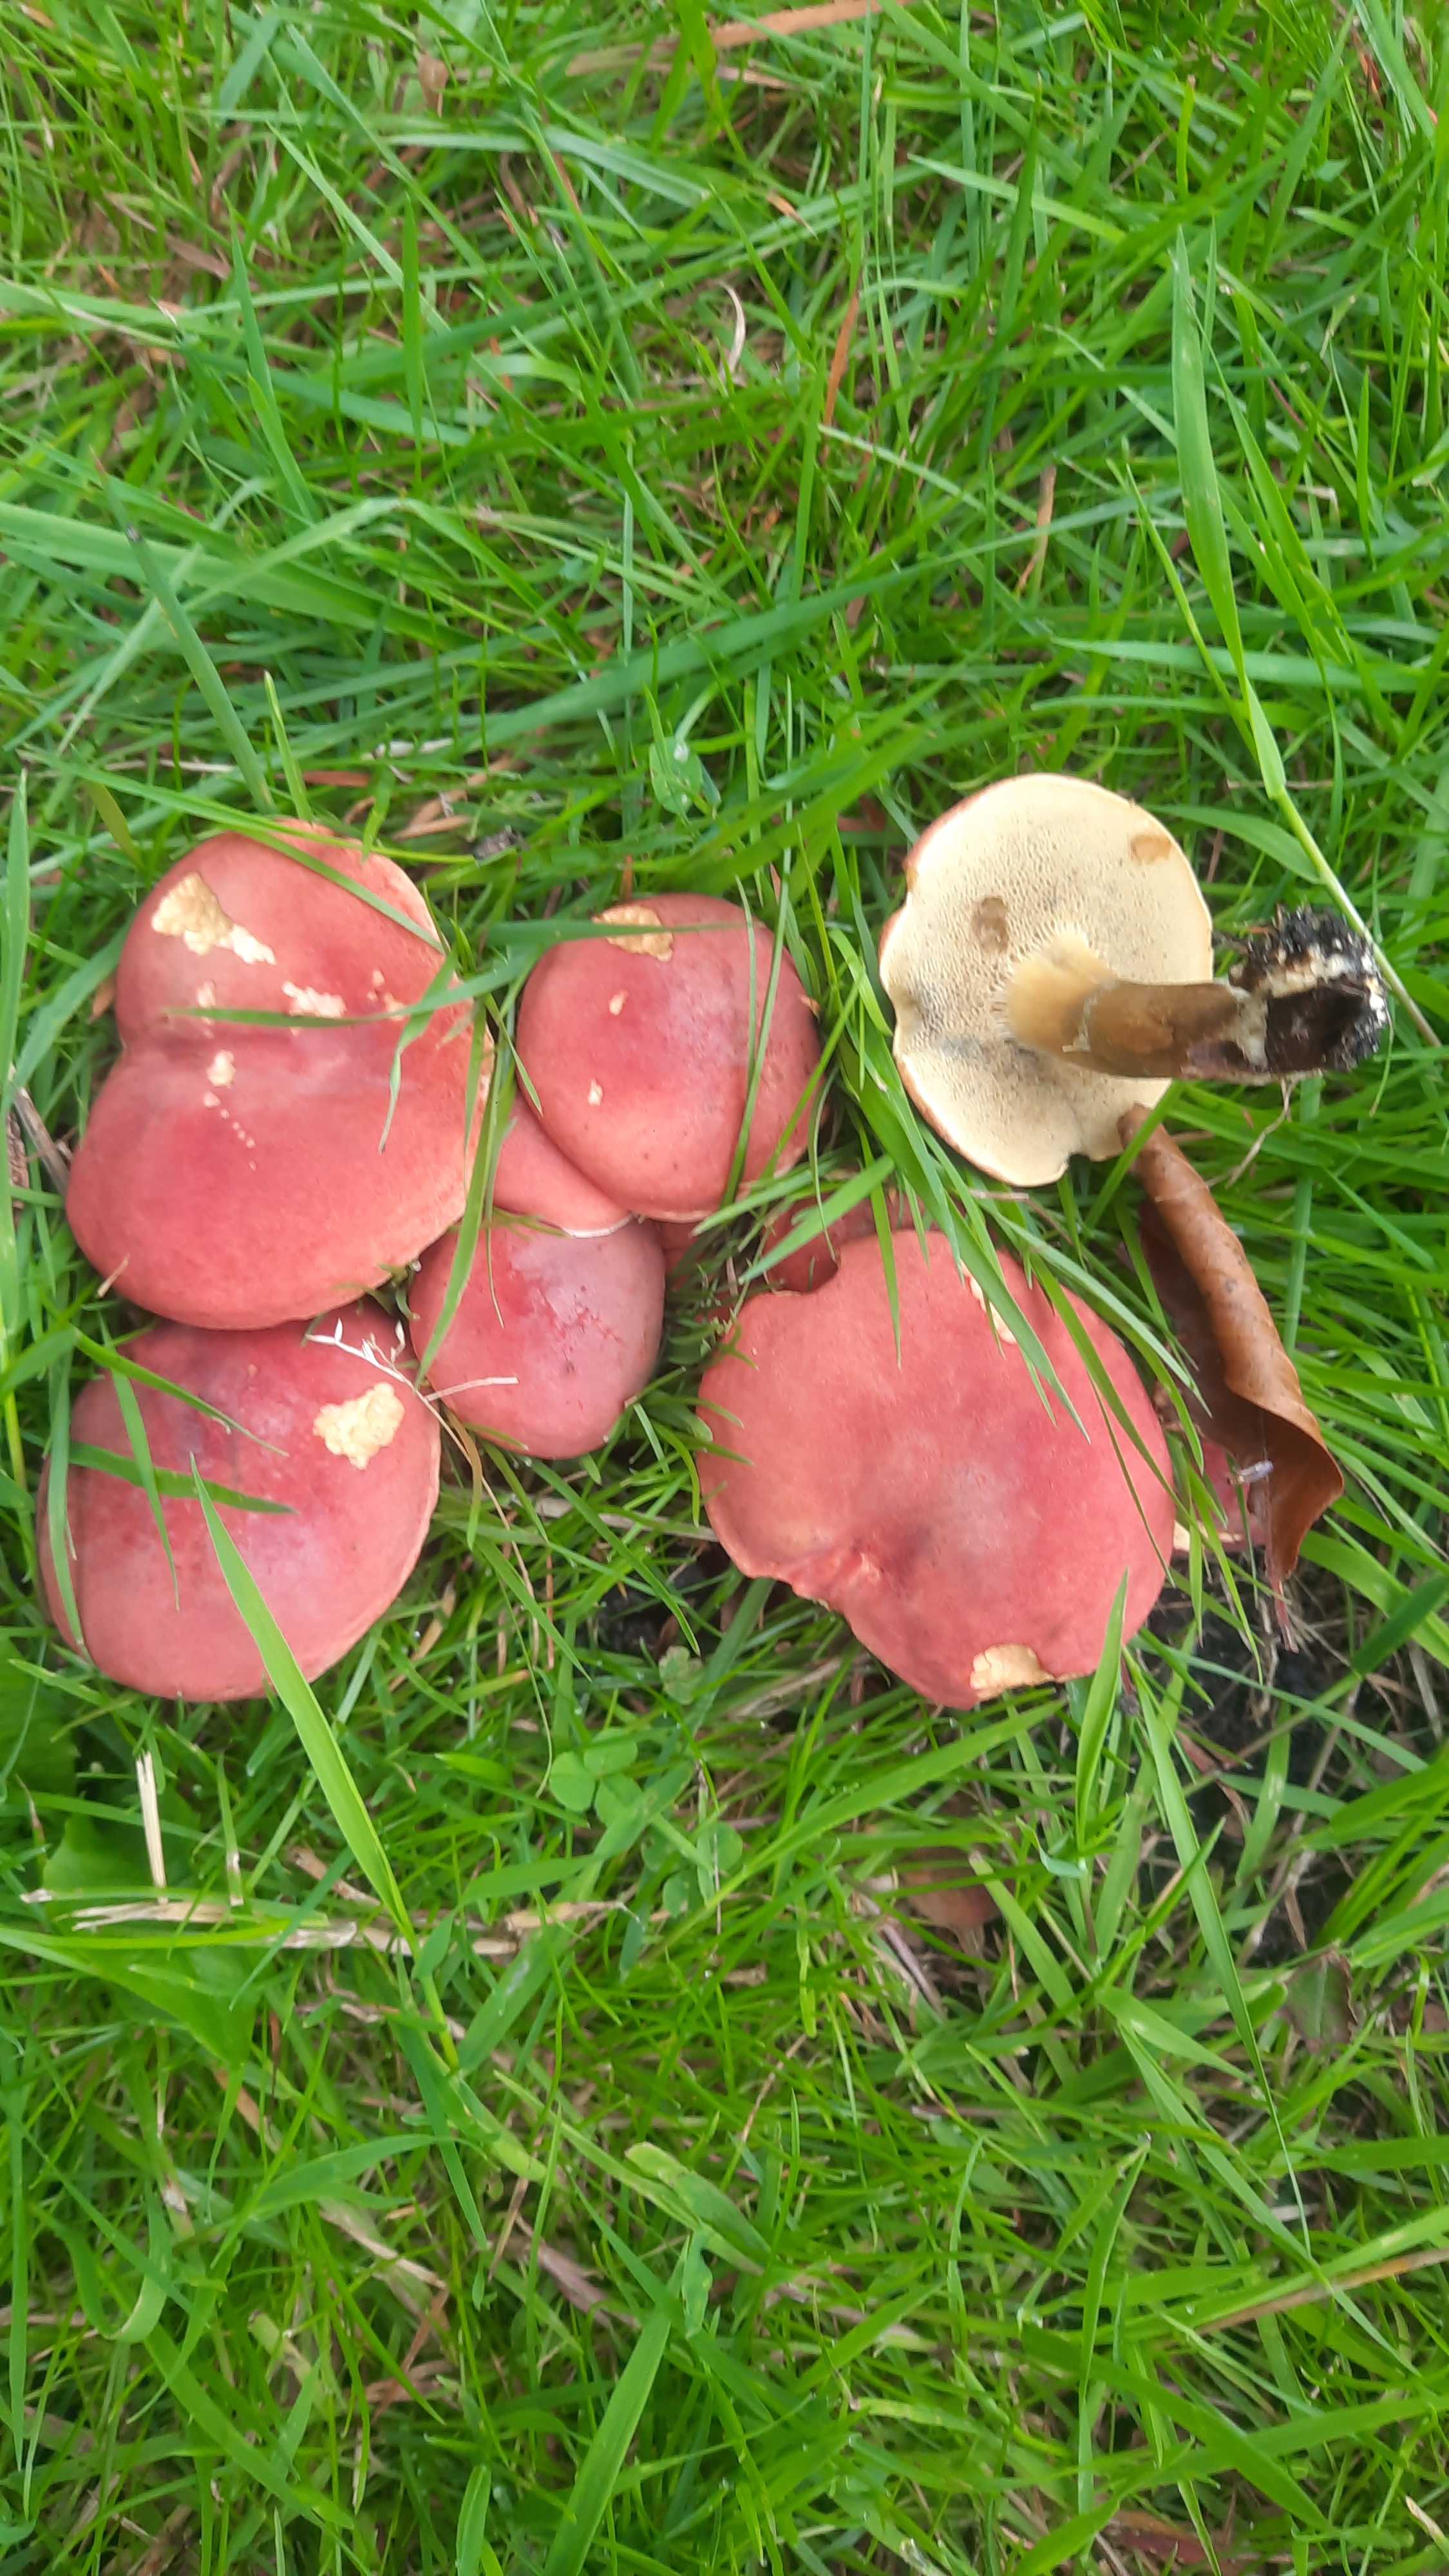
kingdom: Fungi
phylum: Basidiomycota
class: Agaricomycetes
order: Boletales
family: Boletaceae
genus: Hortiboletus
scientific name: Hortiboletus rubellus
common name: blodrød rørhat
